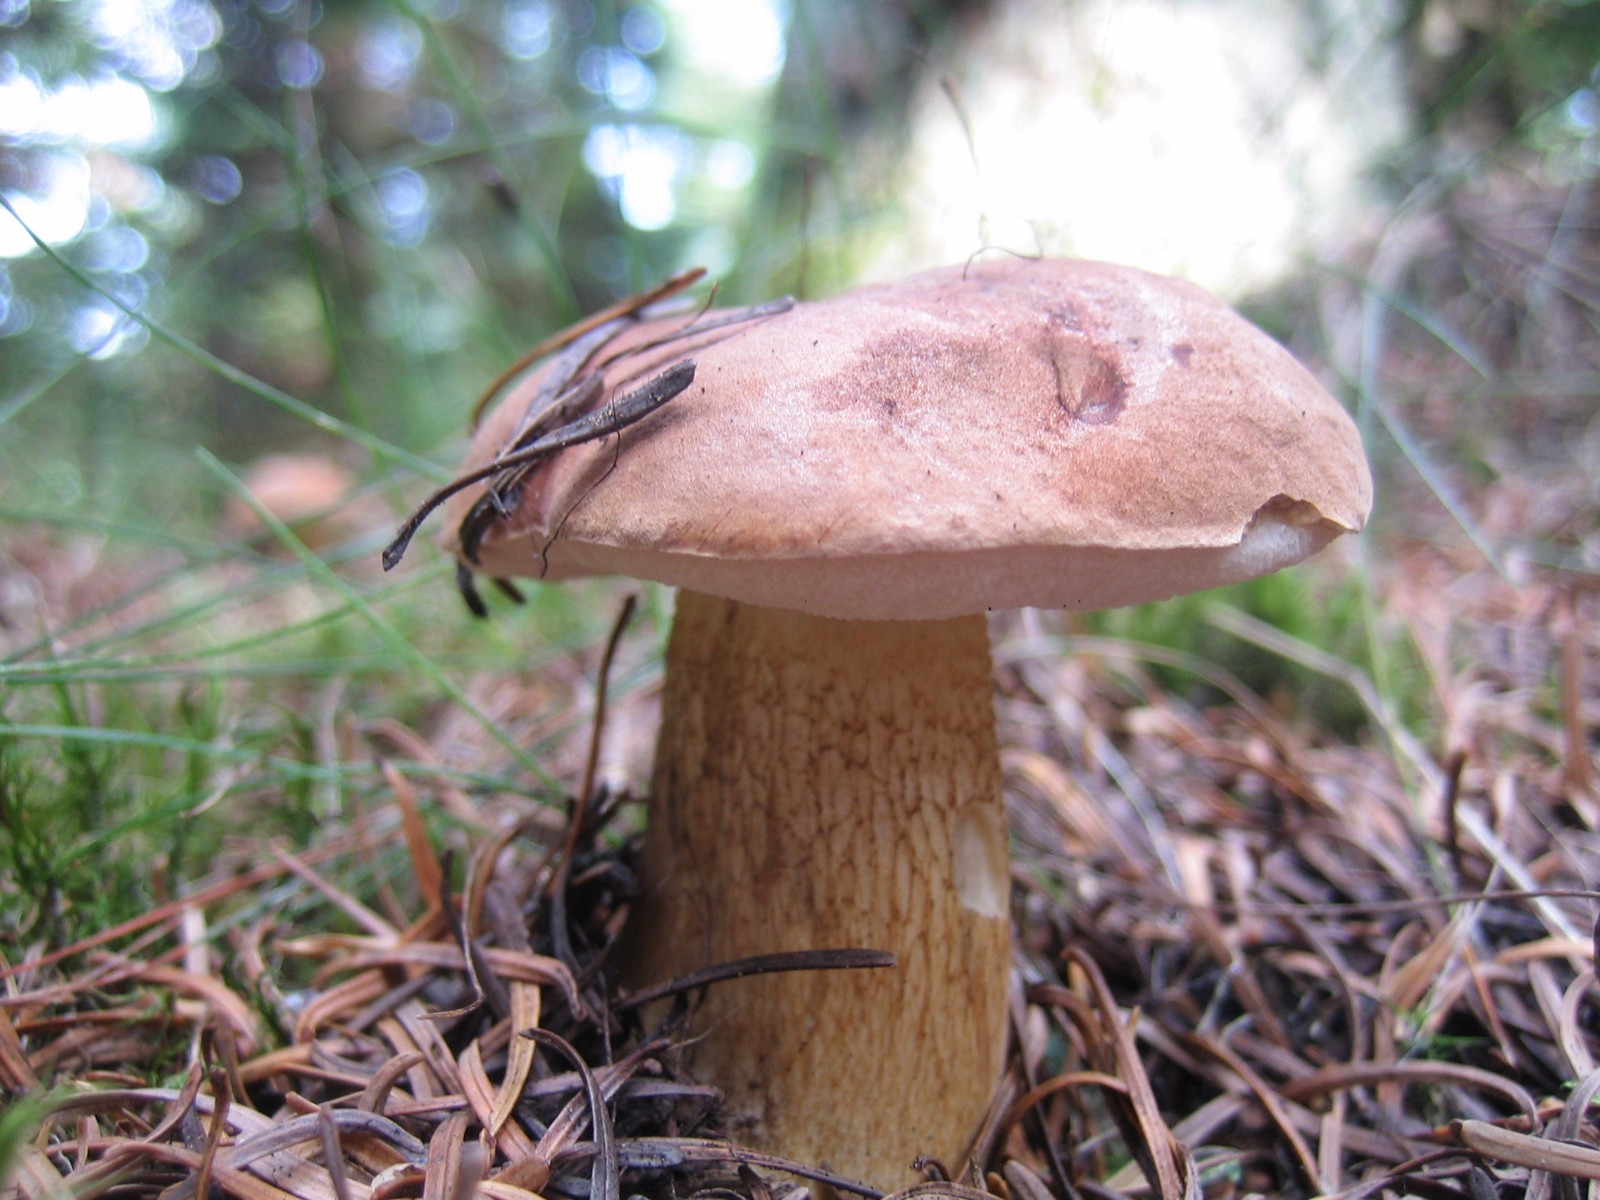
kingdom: Fungi
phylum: Basidiomycota
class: Agaricomycetes
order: Boletales
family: Boletaceae
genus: Tylopilus
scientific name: Tylopilus felleus
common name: galderørhat
